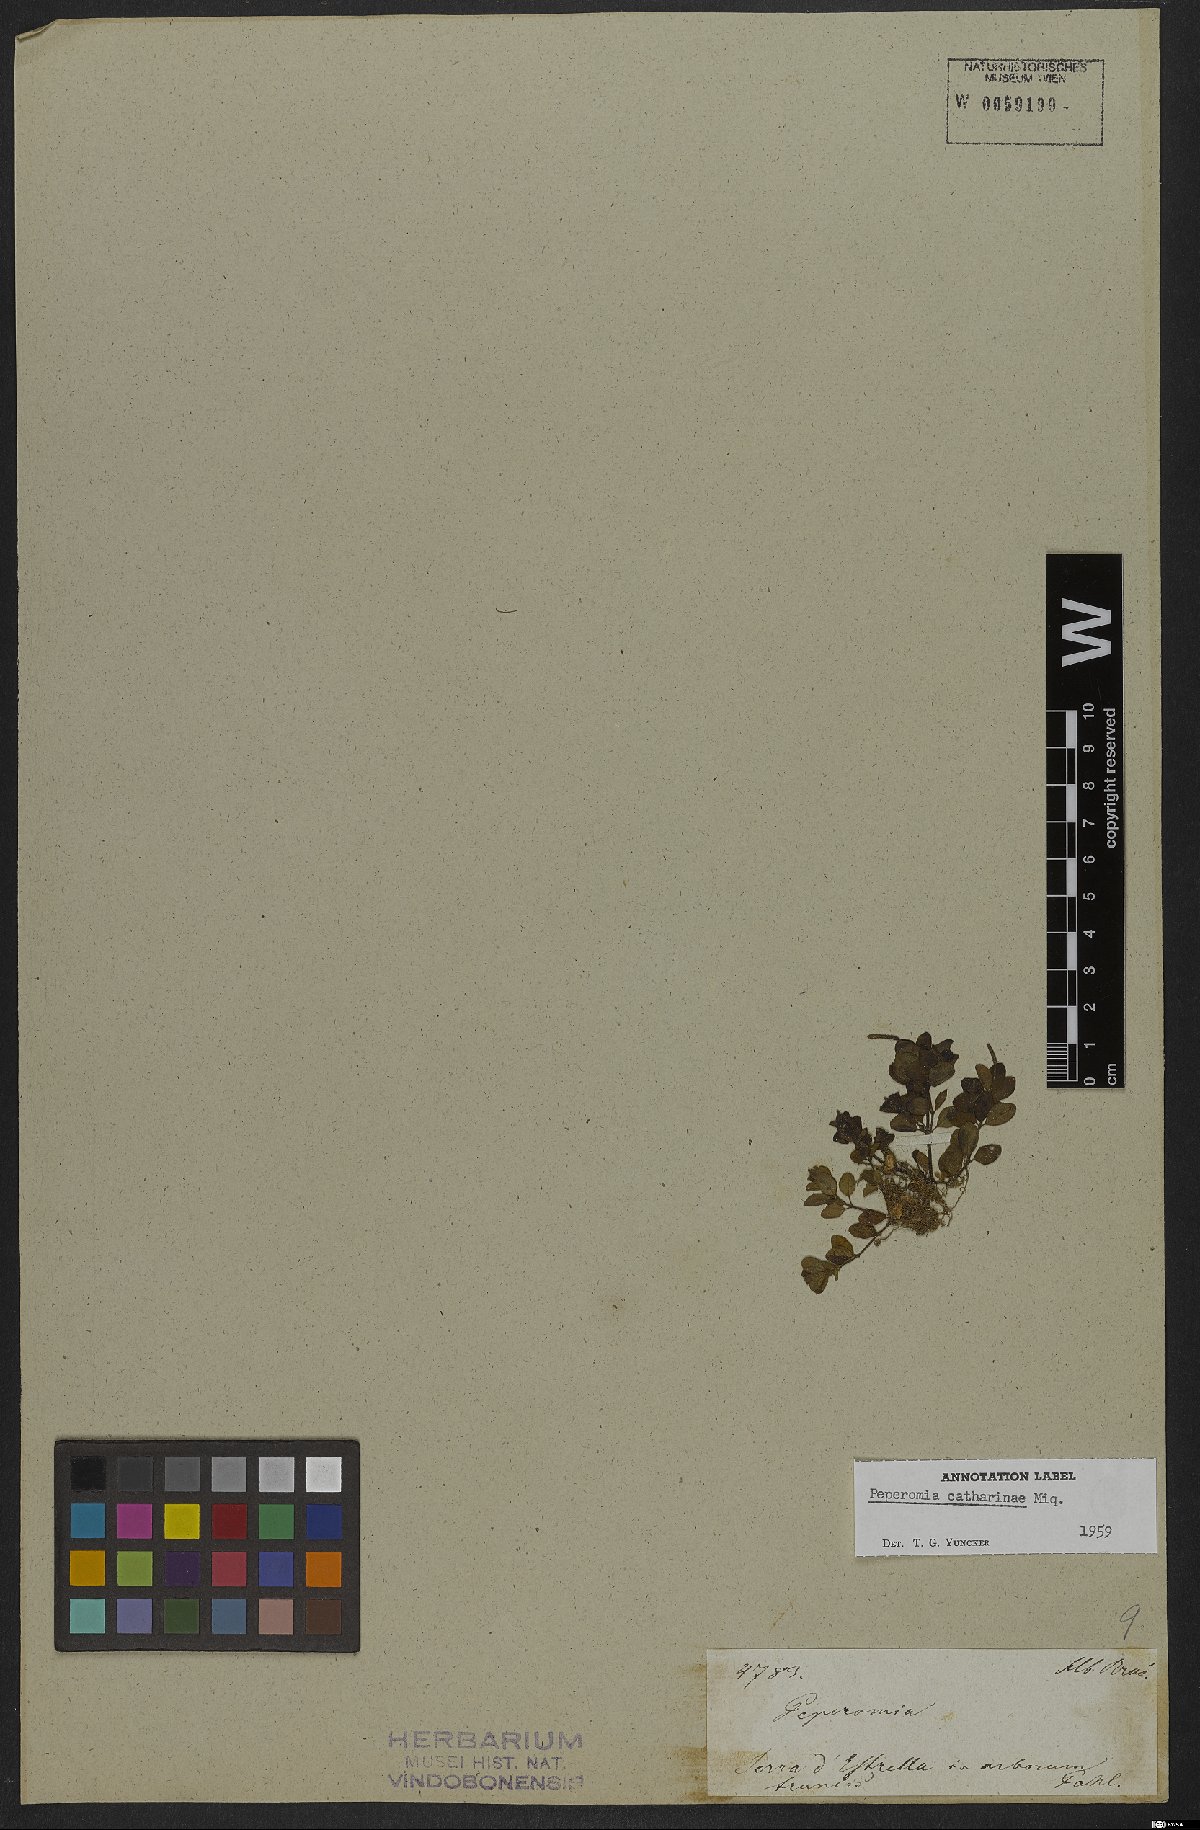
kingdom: Plantae
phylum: Tracheophyta
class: Magnoliopsida
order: Piperales
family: Piperaceae
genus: Peperomia
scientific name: Peperomia catharinae
